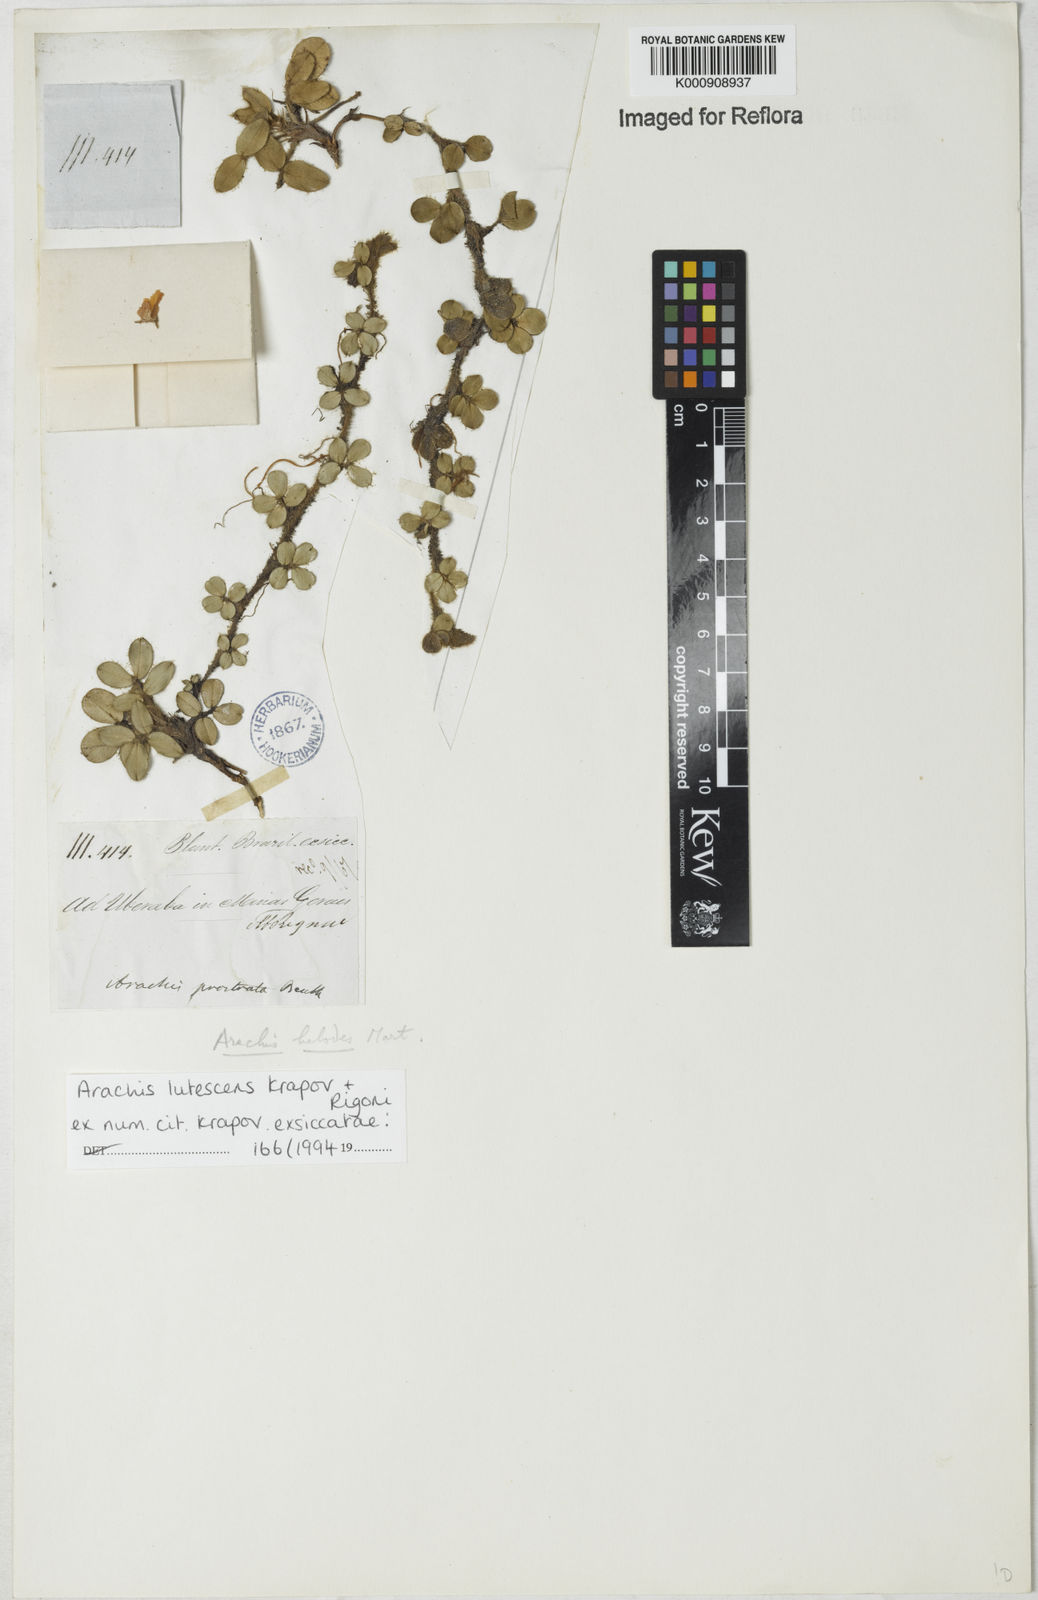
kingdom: Plantae
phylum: Tracheophyta
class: Magnoliopsida
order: Fabales
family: Fabaceae
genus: Arachis
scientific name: Arachis lutescens
